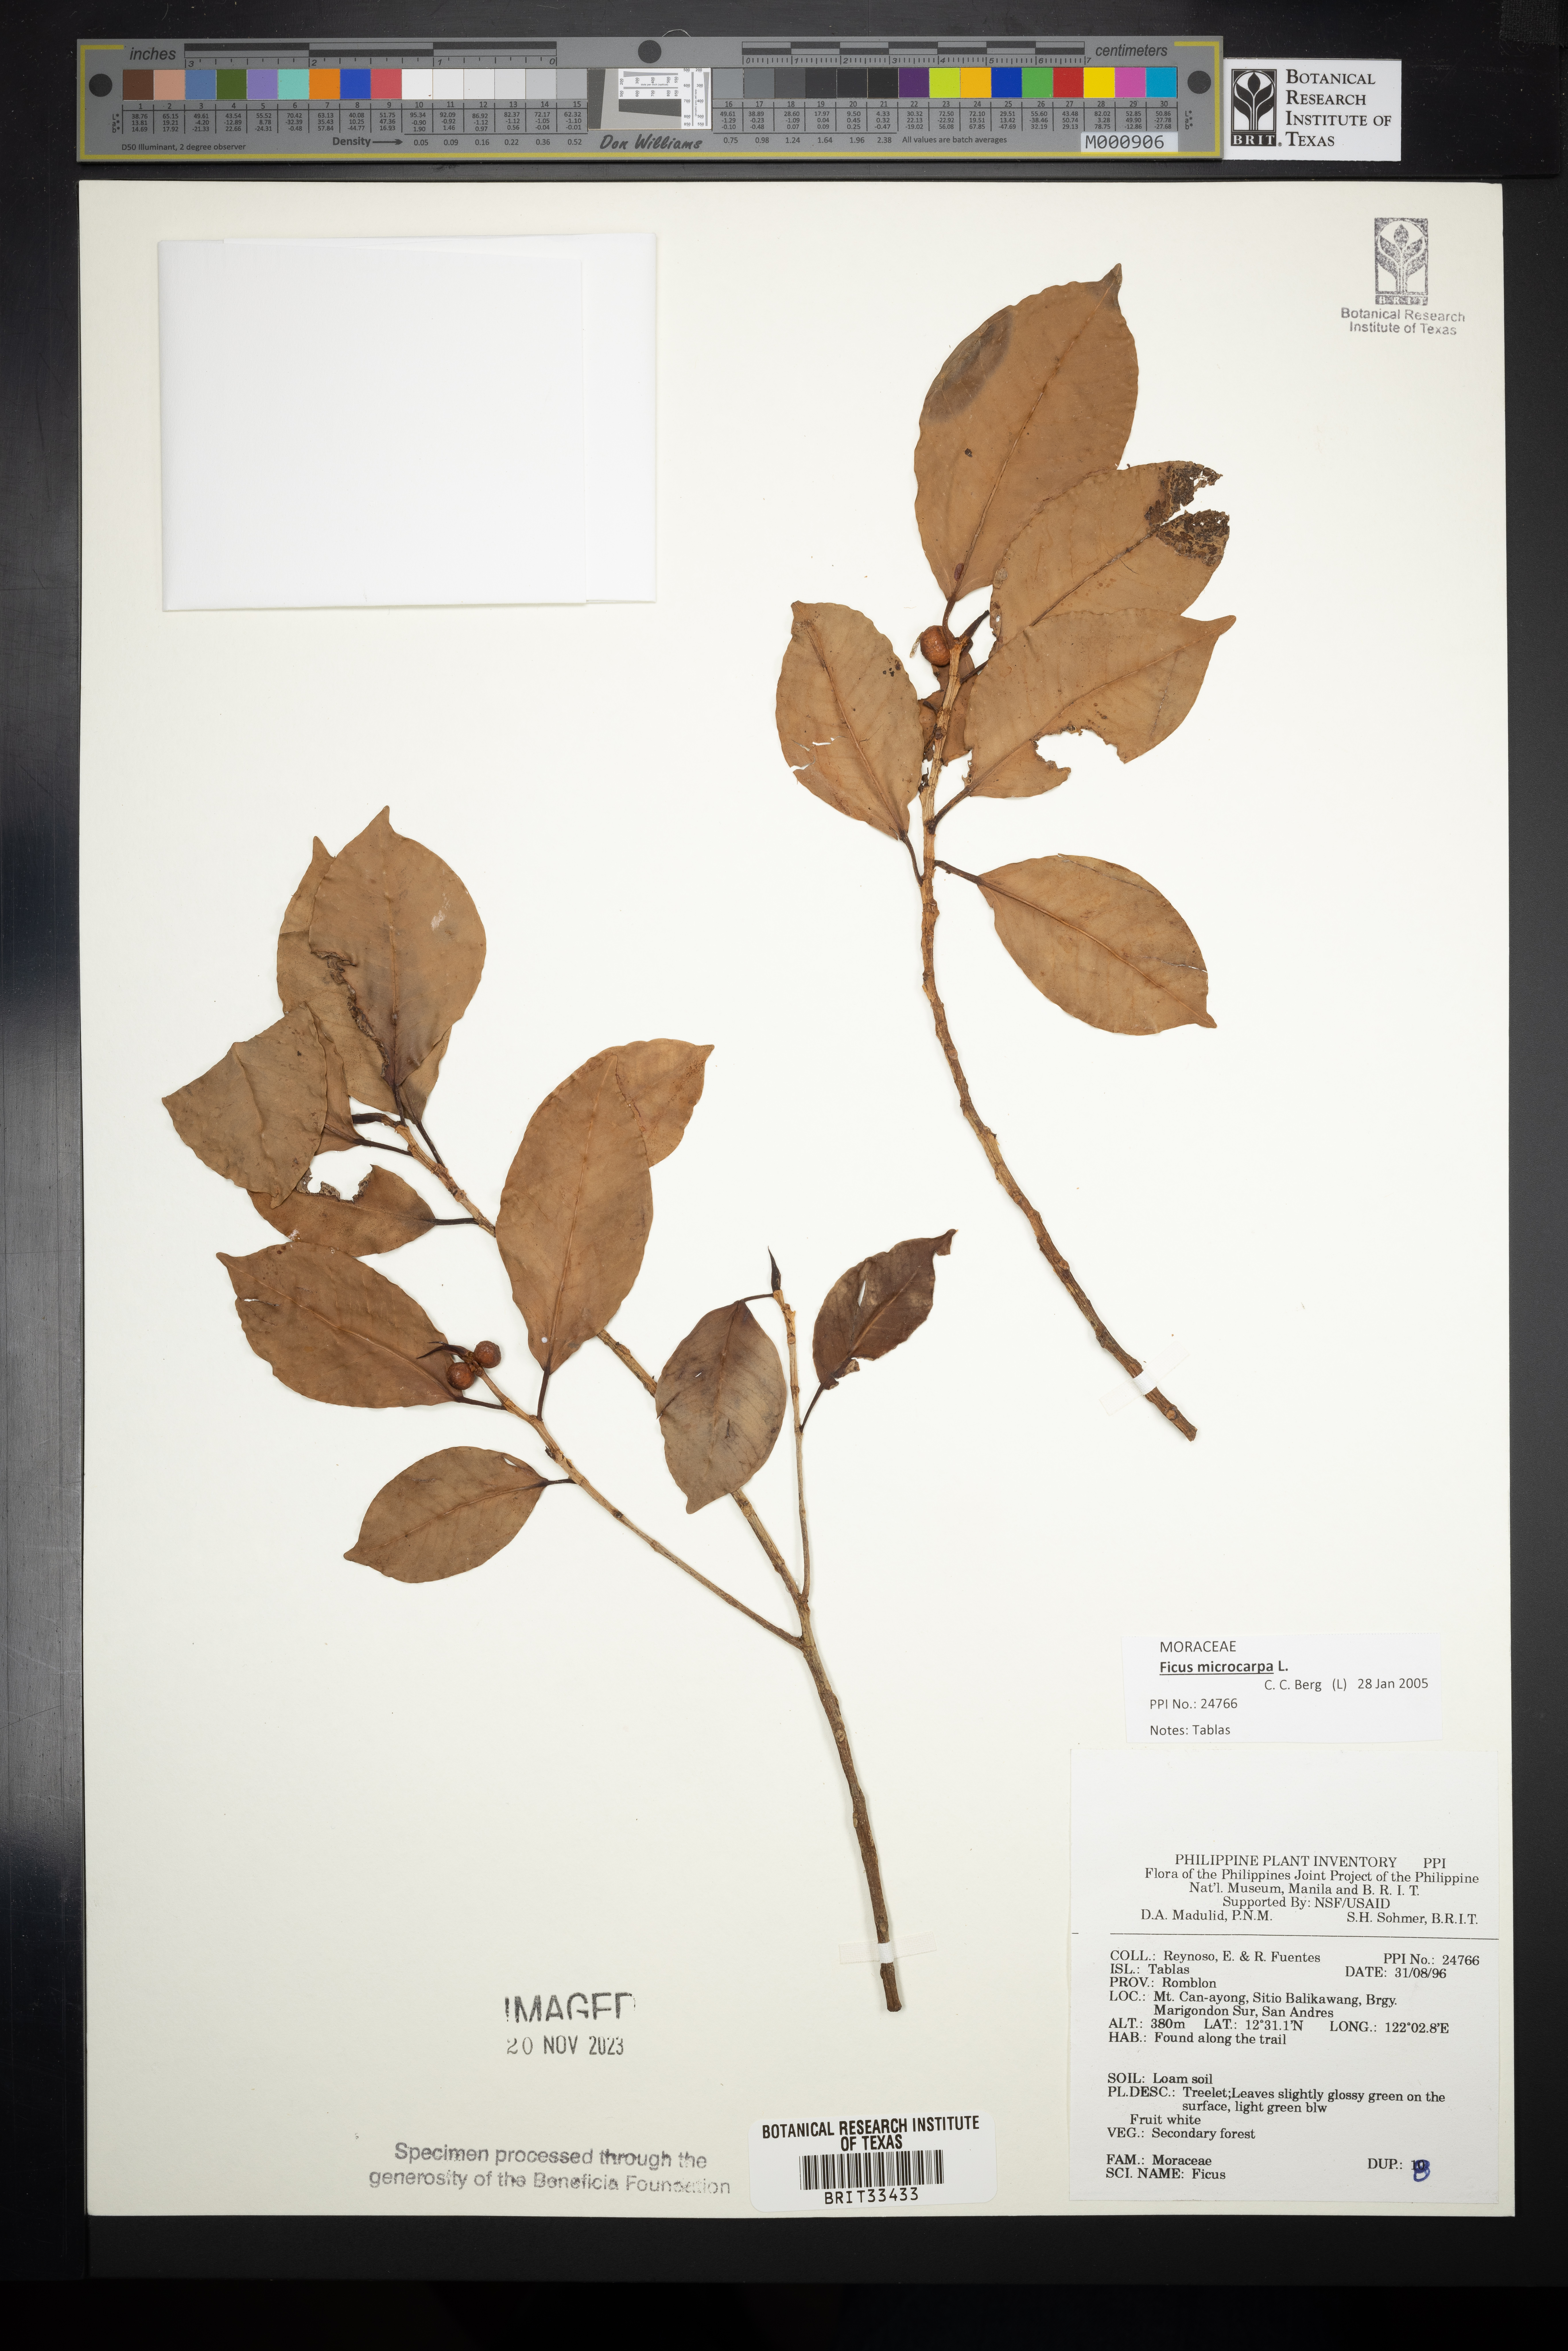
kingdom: Plantae
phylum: Tracheophyta
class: Magnoliopsida
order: Rosales
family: Moraceae
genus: Ficus
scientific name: Ficus
